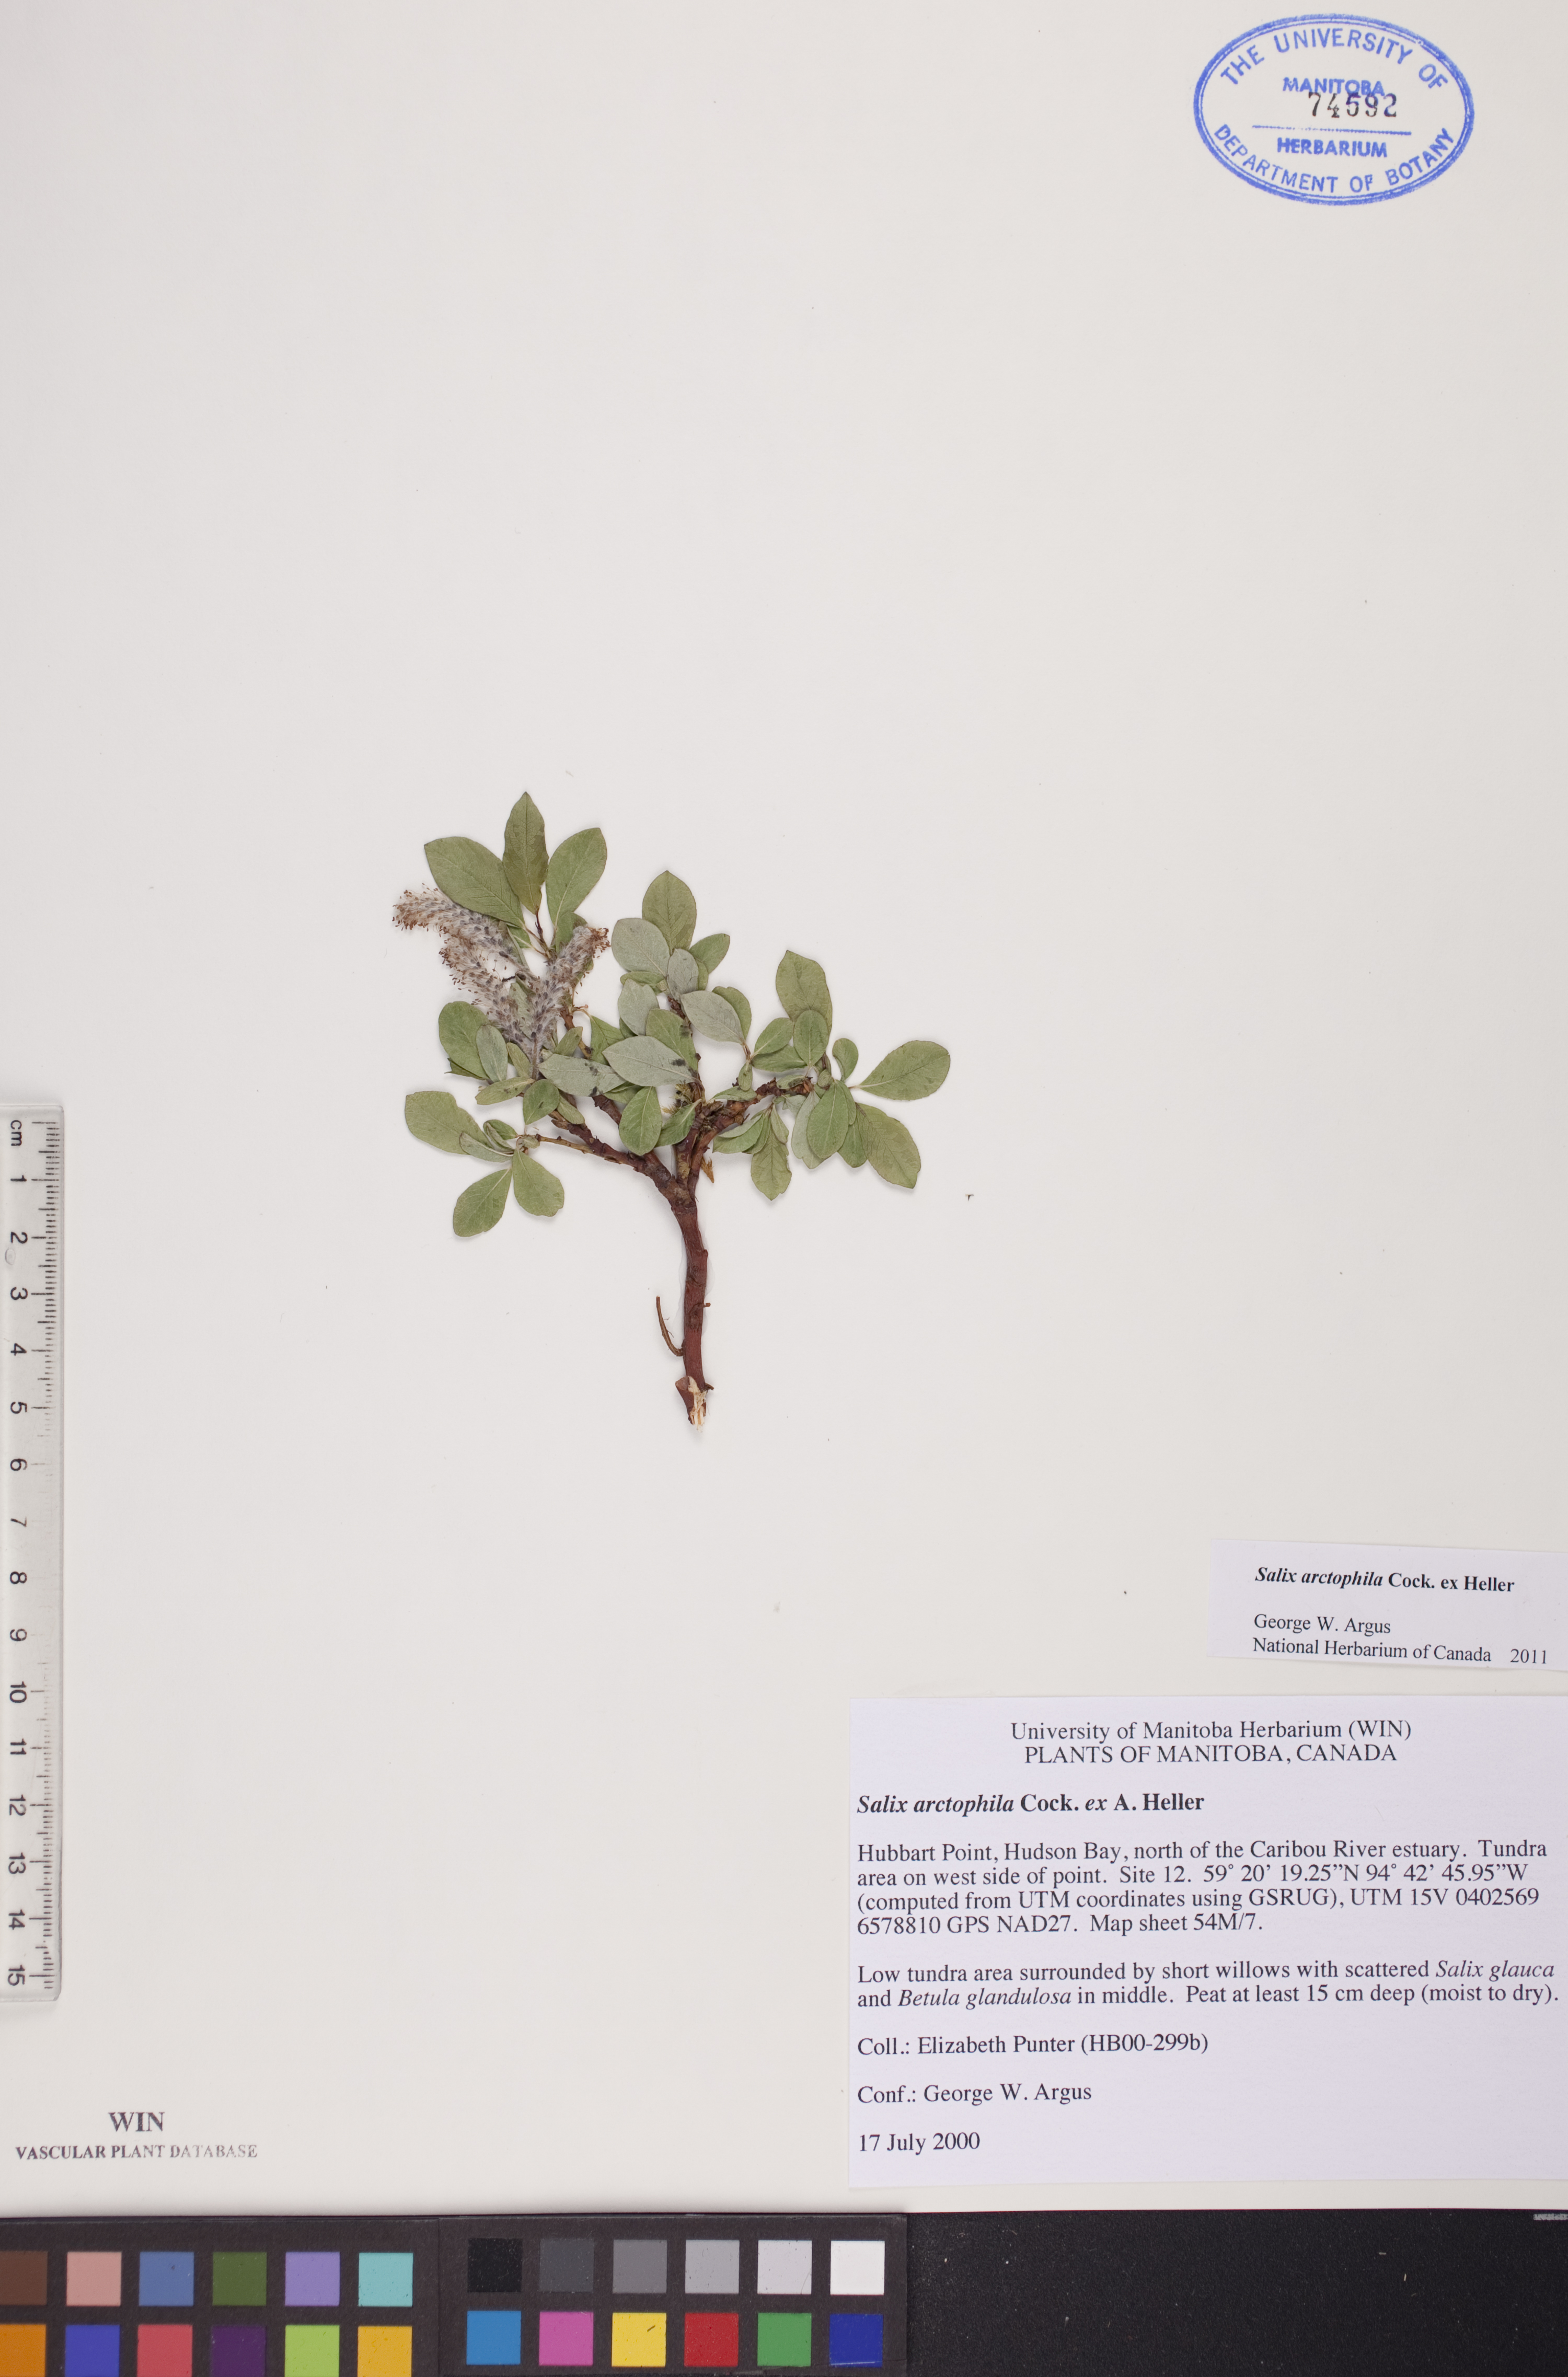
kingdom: Plantae
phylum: Tracheophyta
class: Magnoliopsida
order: Malpighiales
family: Salicaceae
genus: Salix
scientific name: Salix arctophila
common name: Greenland willow
